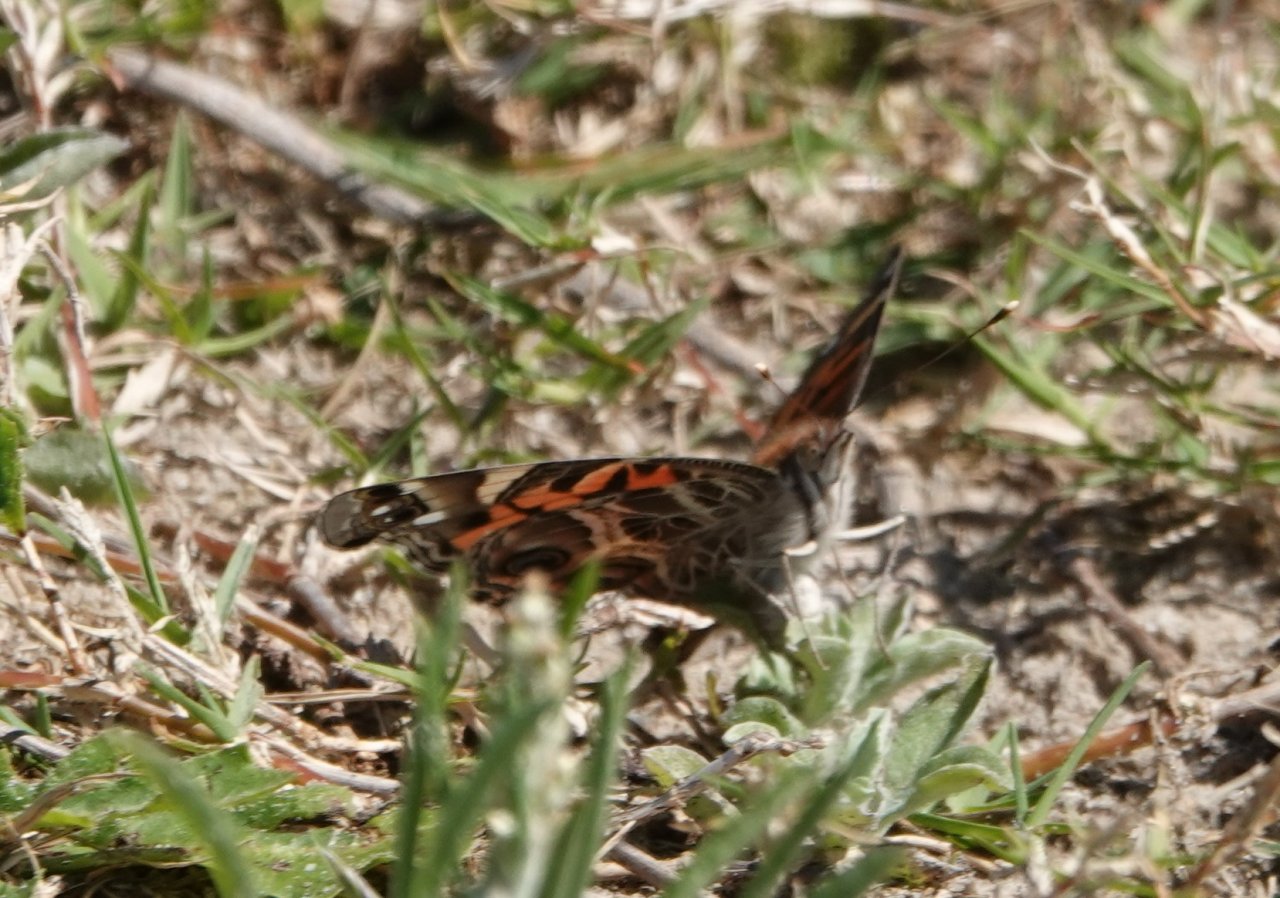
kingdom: Animalia
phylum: Arthropoda
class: Insecta
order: Lepidoptera
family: Nymphalidae
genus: Vanessa
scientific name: Vanessa virginiensis
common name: American Lady
